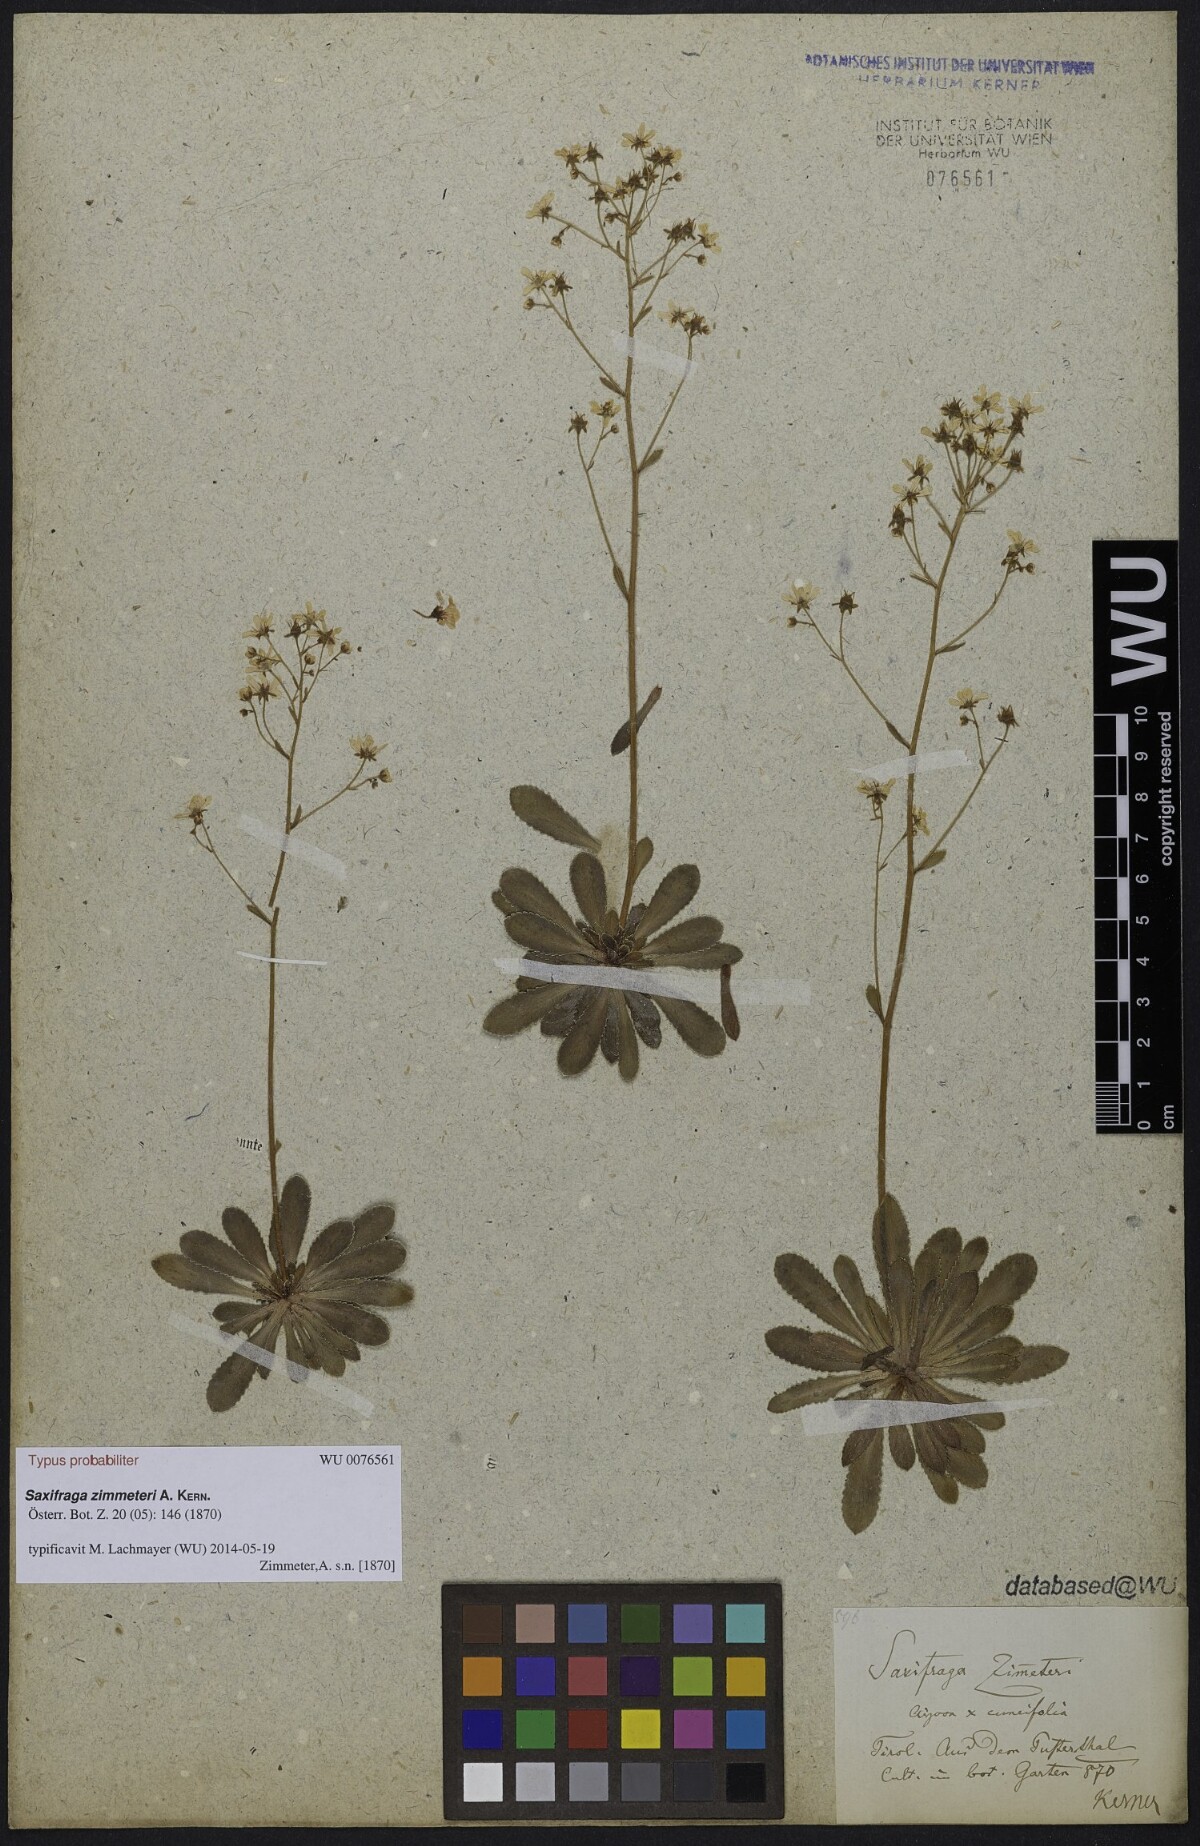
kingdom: Plantae
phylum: Tracheophyta
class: Magnoliopsida
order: Saxifragales
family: Saxifragaceae
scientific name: Saxifragaceae
